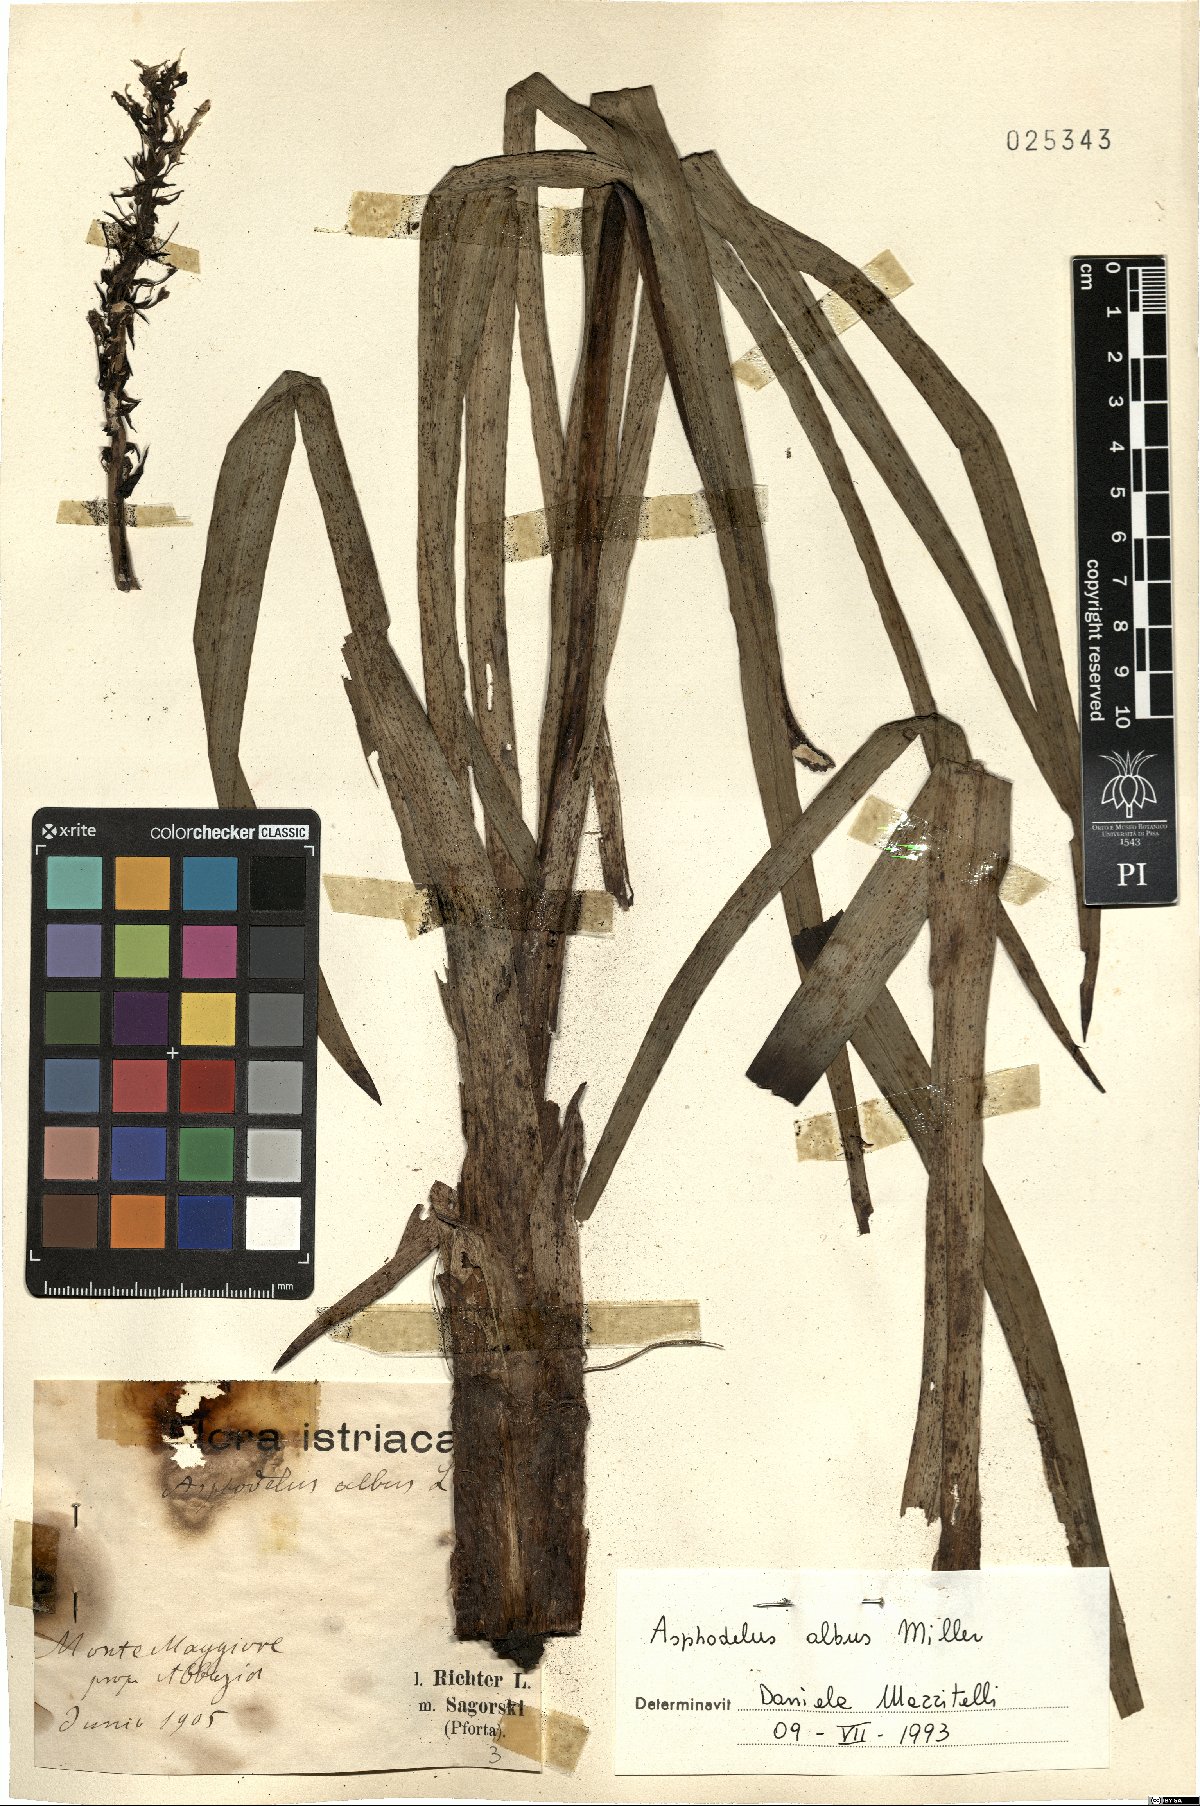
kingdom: Plantae
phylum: Tracheophyta
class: Liliopsida
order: Asparagales
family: Asphodelaceae
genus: Asphodelus
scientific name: Asphodelus albus
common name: White asphodel
